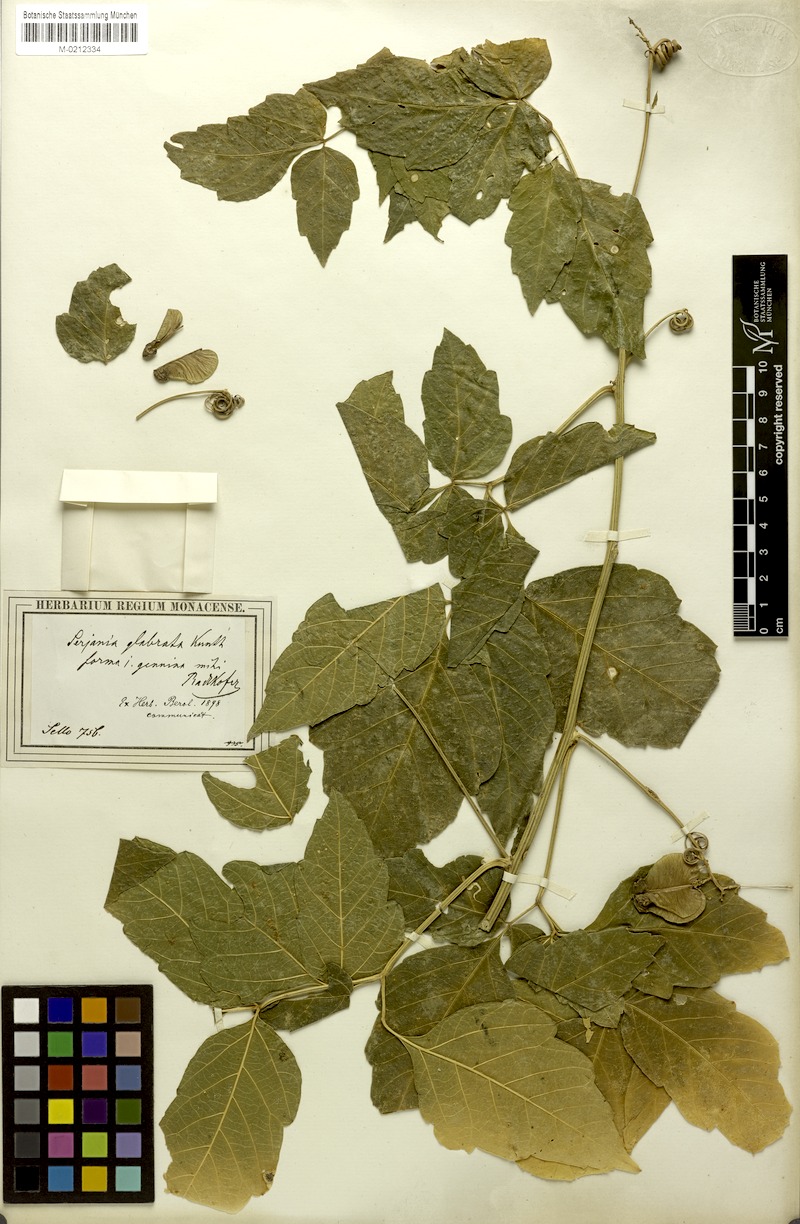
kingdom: Plantae
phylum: Tracheophyta
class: Magnoliopsida
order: Sapindales
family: Sapindaceae
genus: Serjania
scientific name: Serjania glabrata
